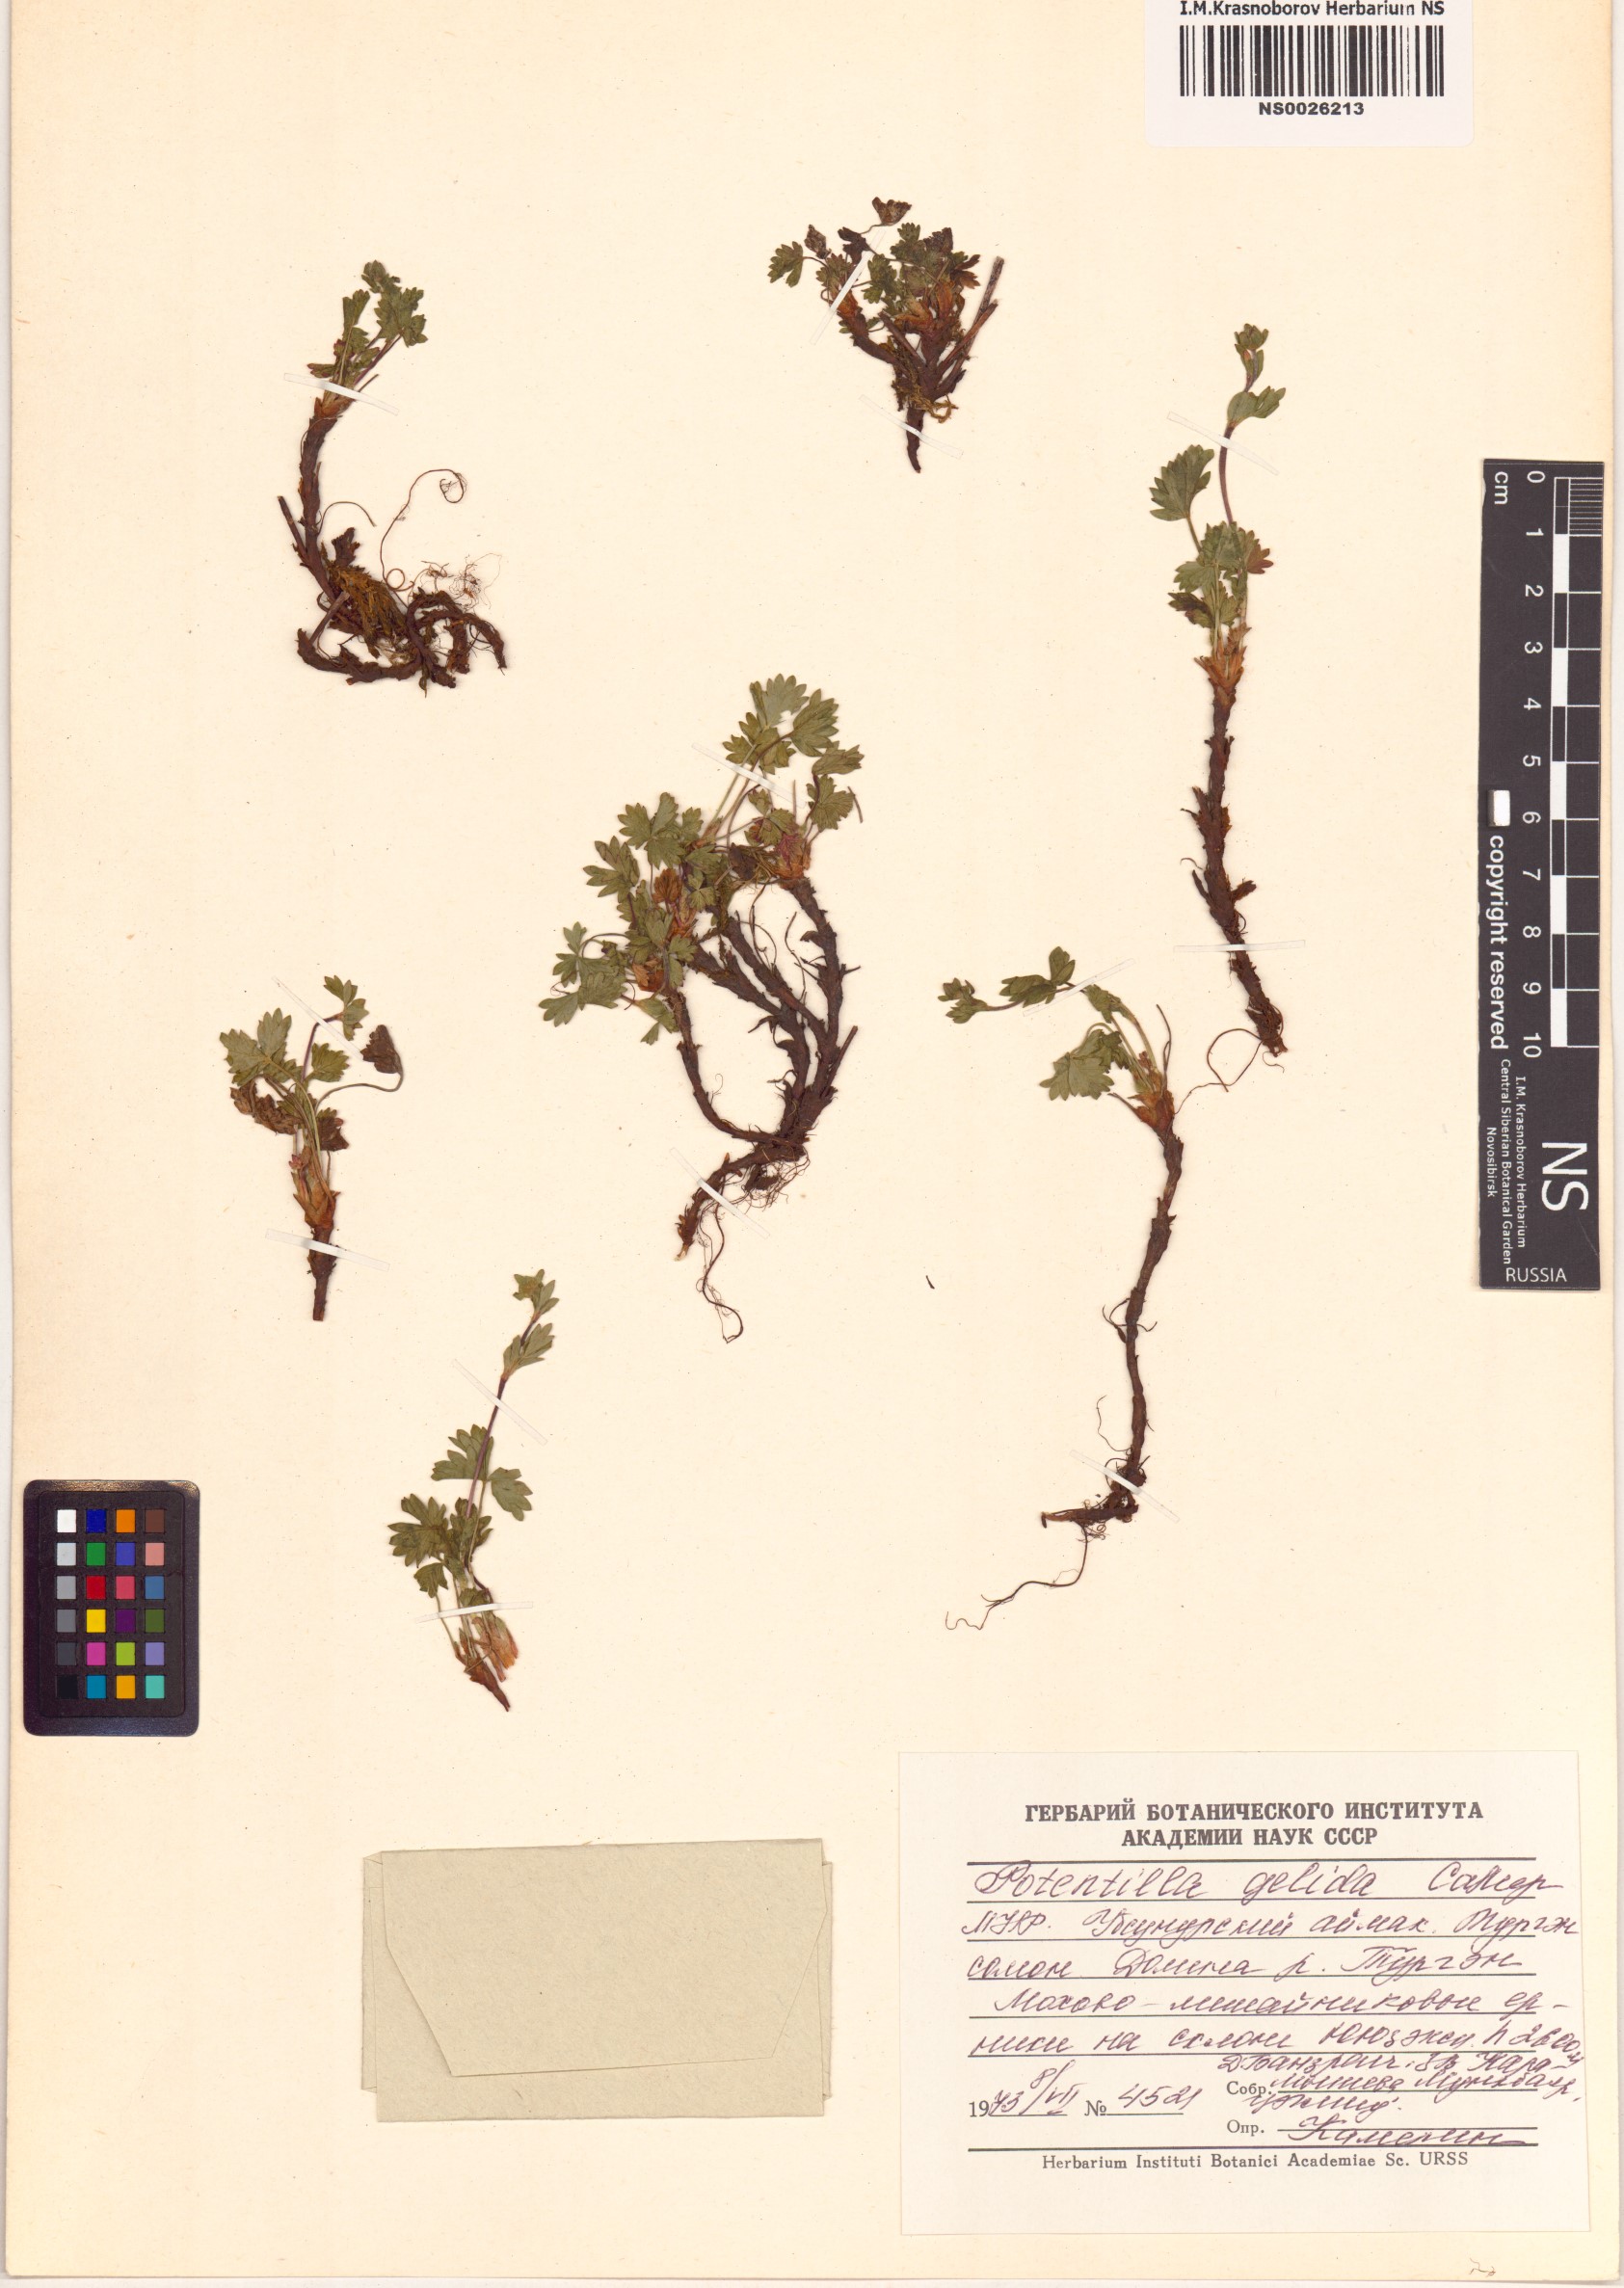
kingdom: Plantae
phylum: Tracheophyta
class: Magnoliopsida
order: Rosales
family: Rosaceae
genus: Potentilla
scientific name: Potentilla crantzii
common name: Alpine cinquefoil
